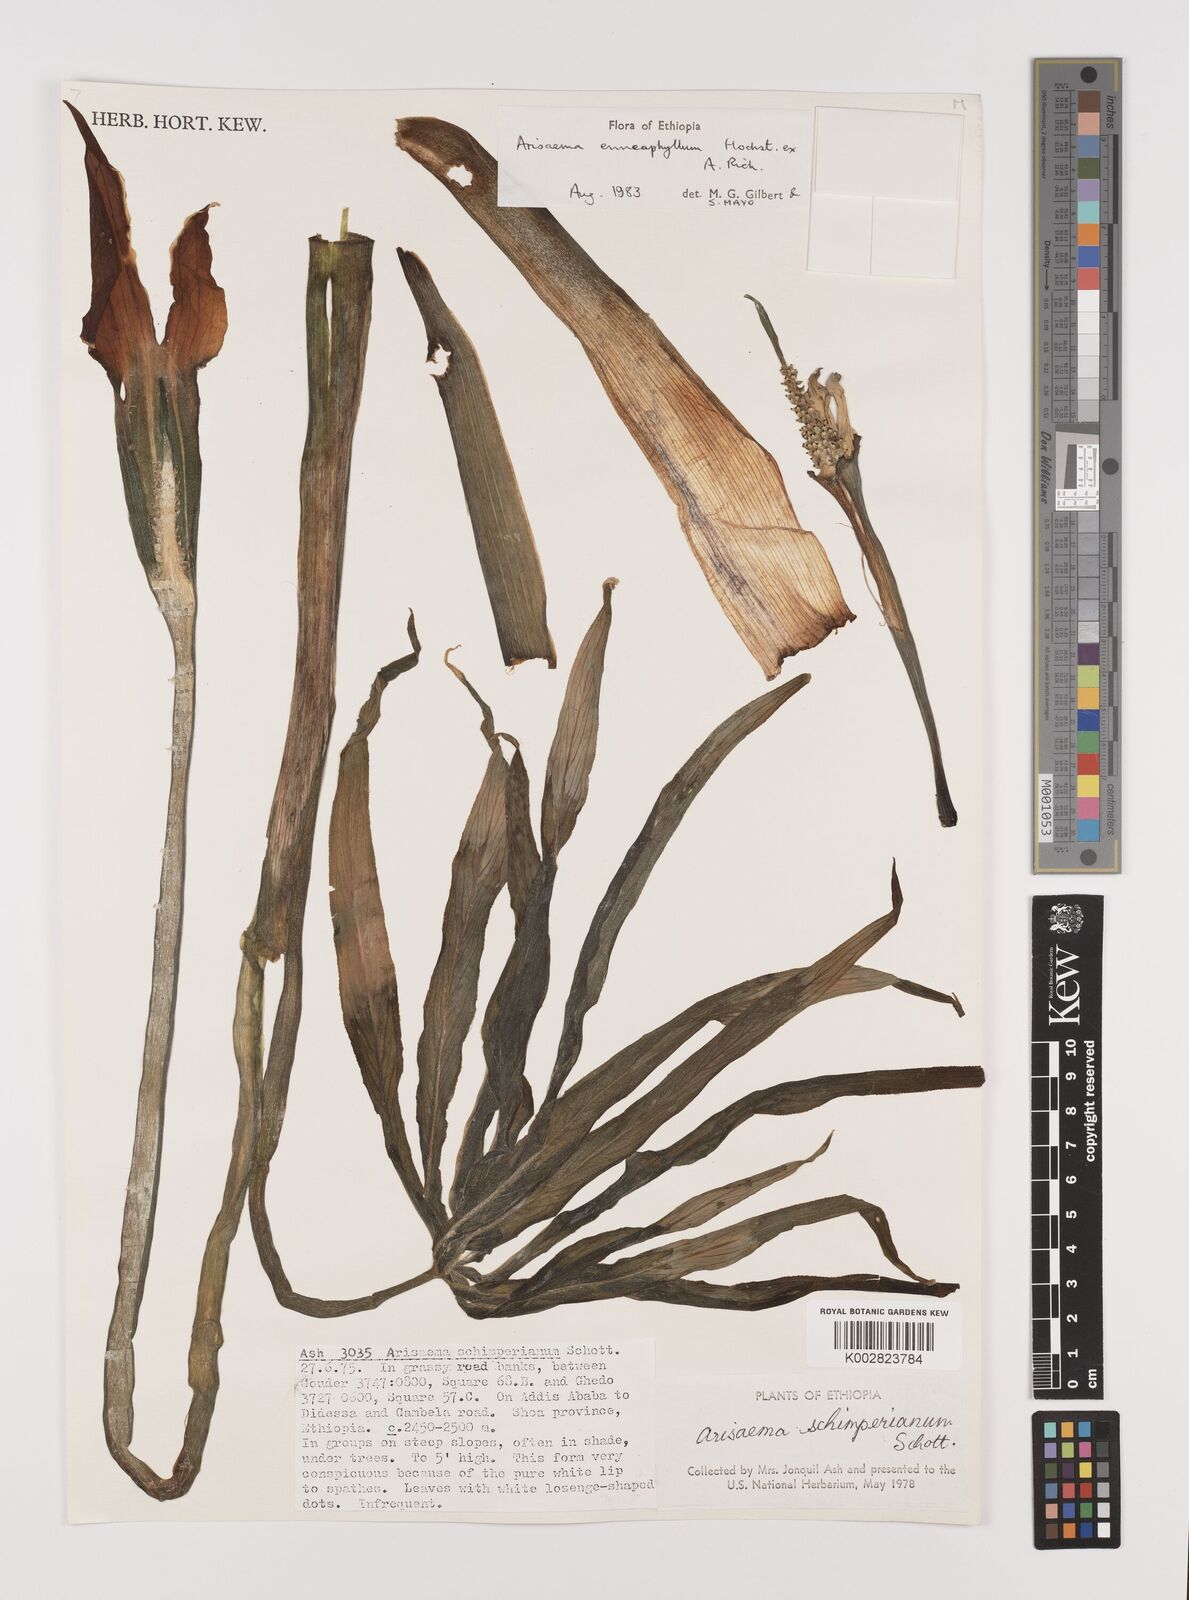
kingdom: Plantae
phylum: Tracheophyta
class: Liliopsida
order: Alismatales
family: Araceae
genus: Arisaema
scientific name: Arisaema enneaphyllum
